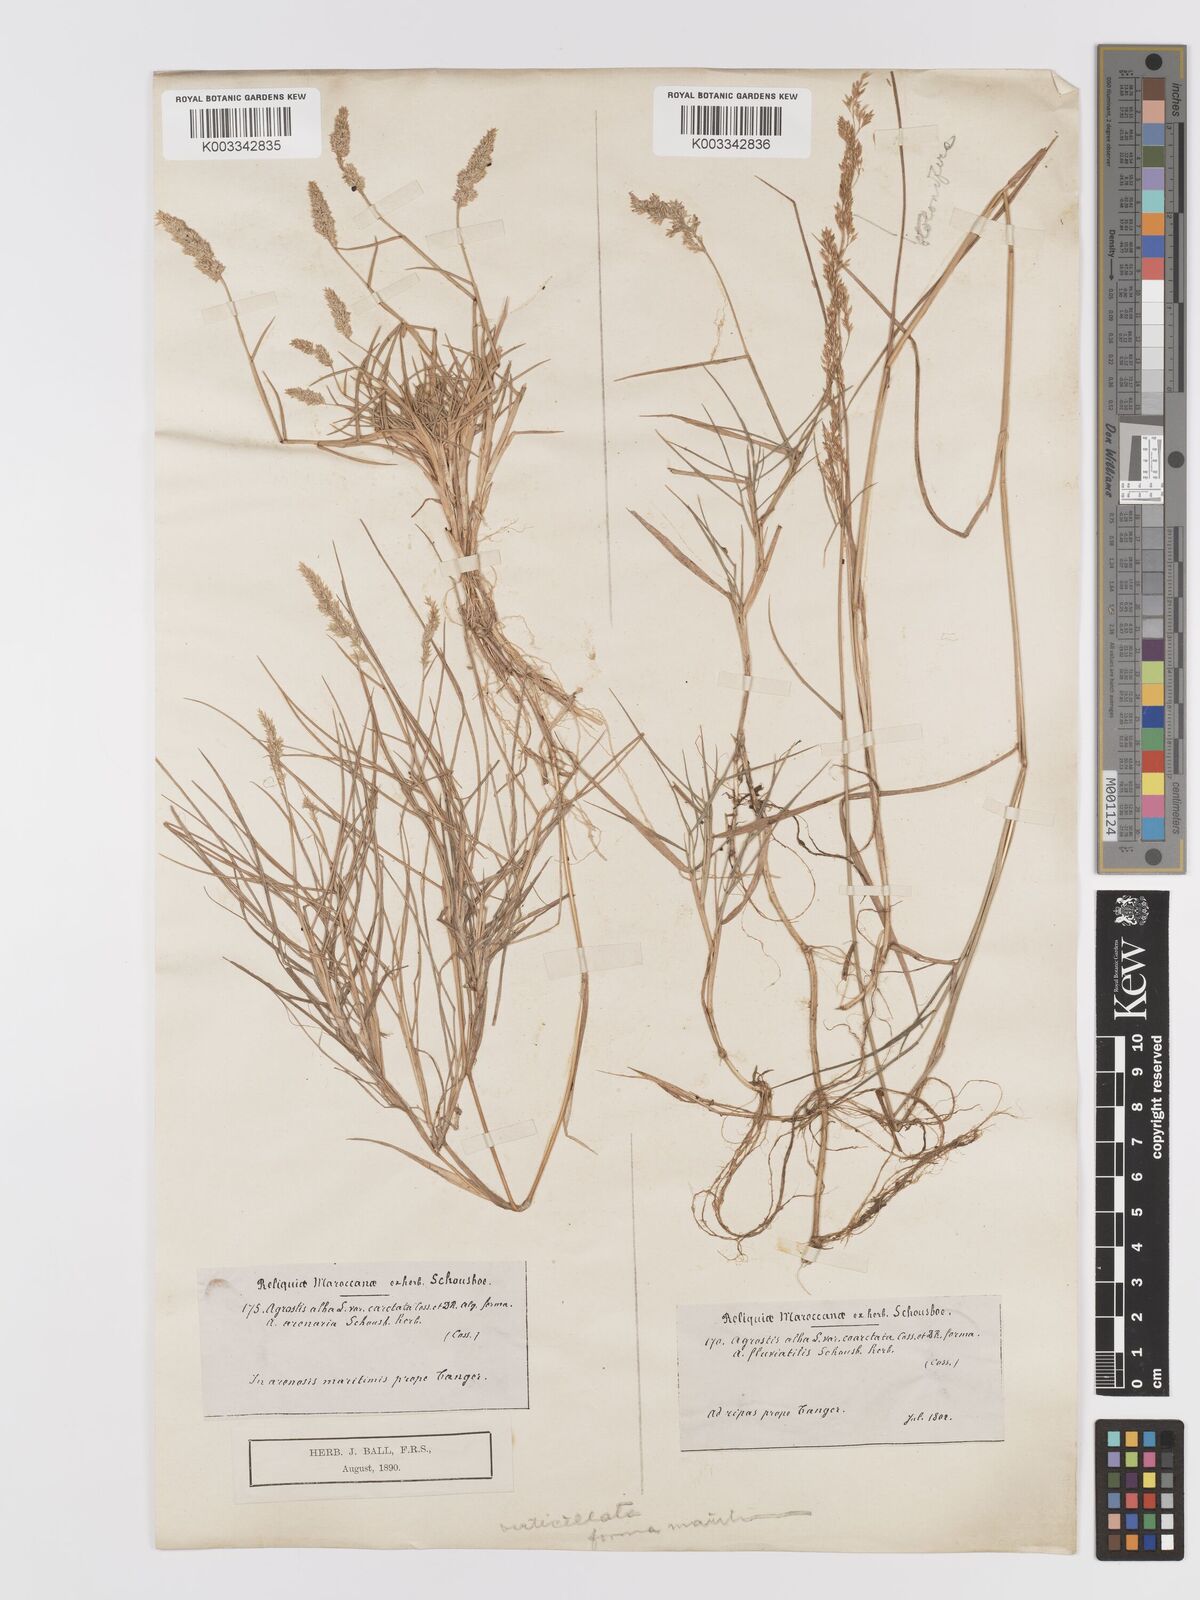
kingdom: Plantae
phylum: Tracheophyta
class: Liliopsida
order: Poales
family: Poaceae
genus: Agrostis
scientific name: Agrostis stolonifera
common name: Creeping bentgrass
